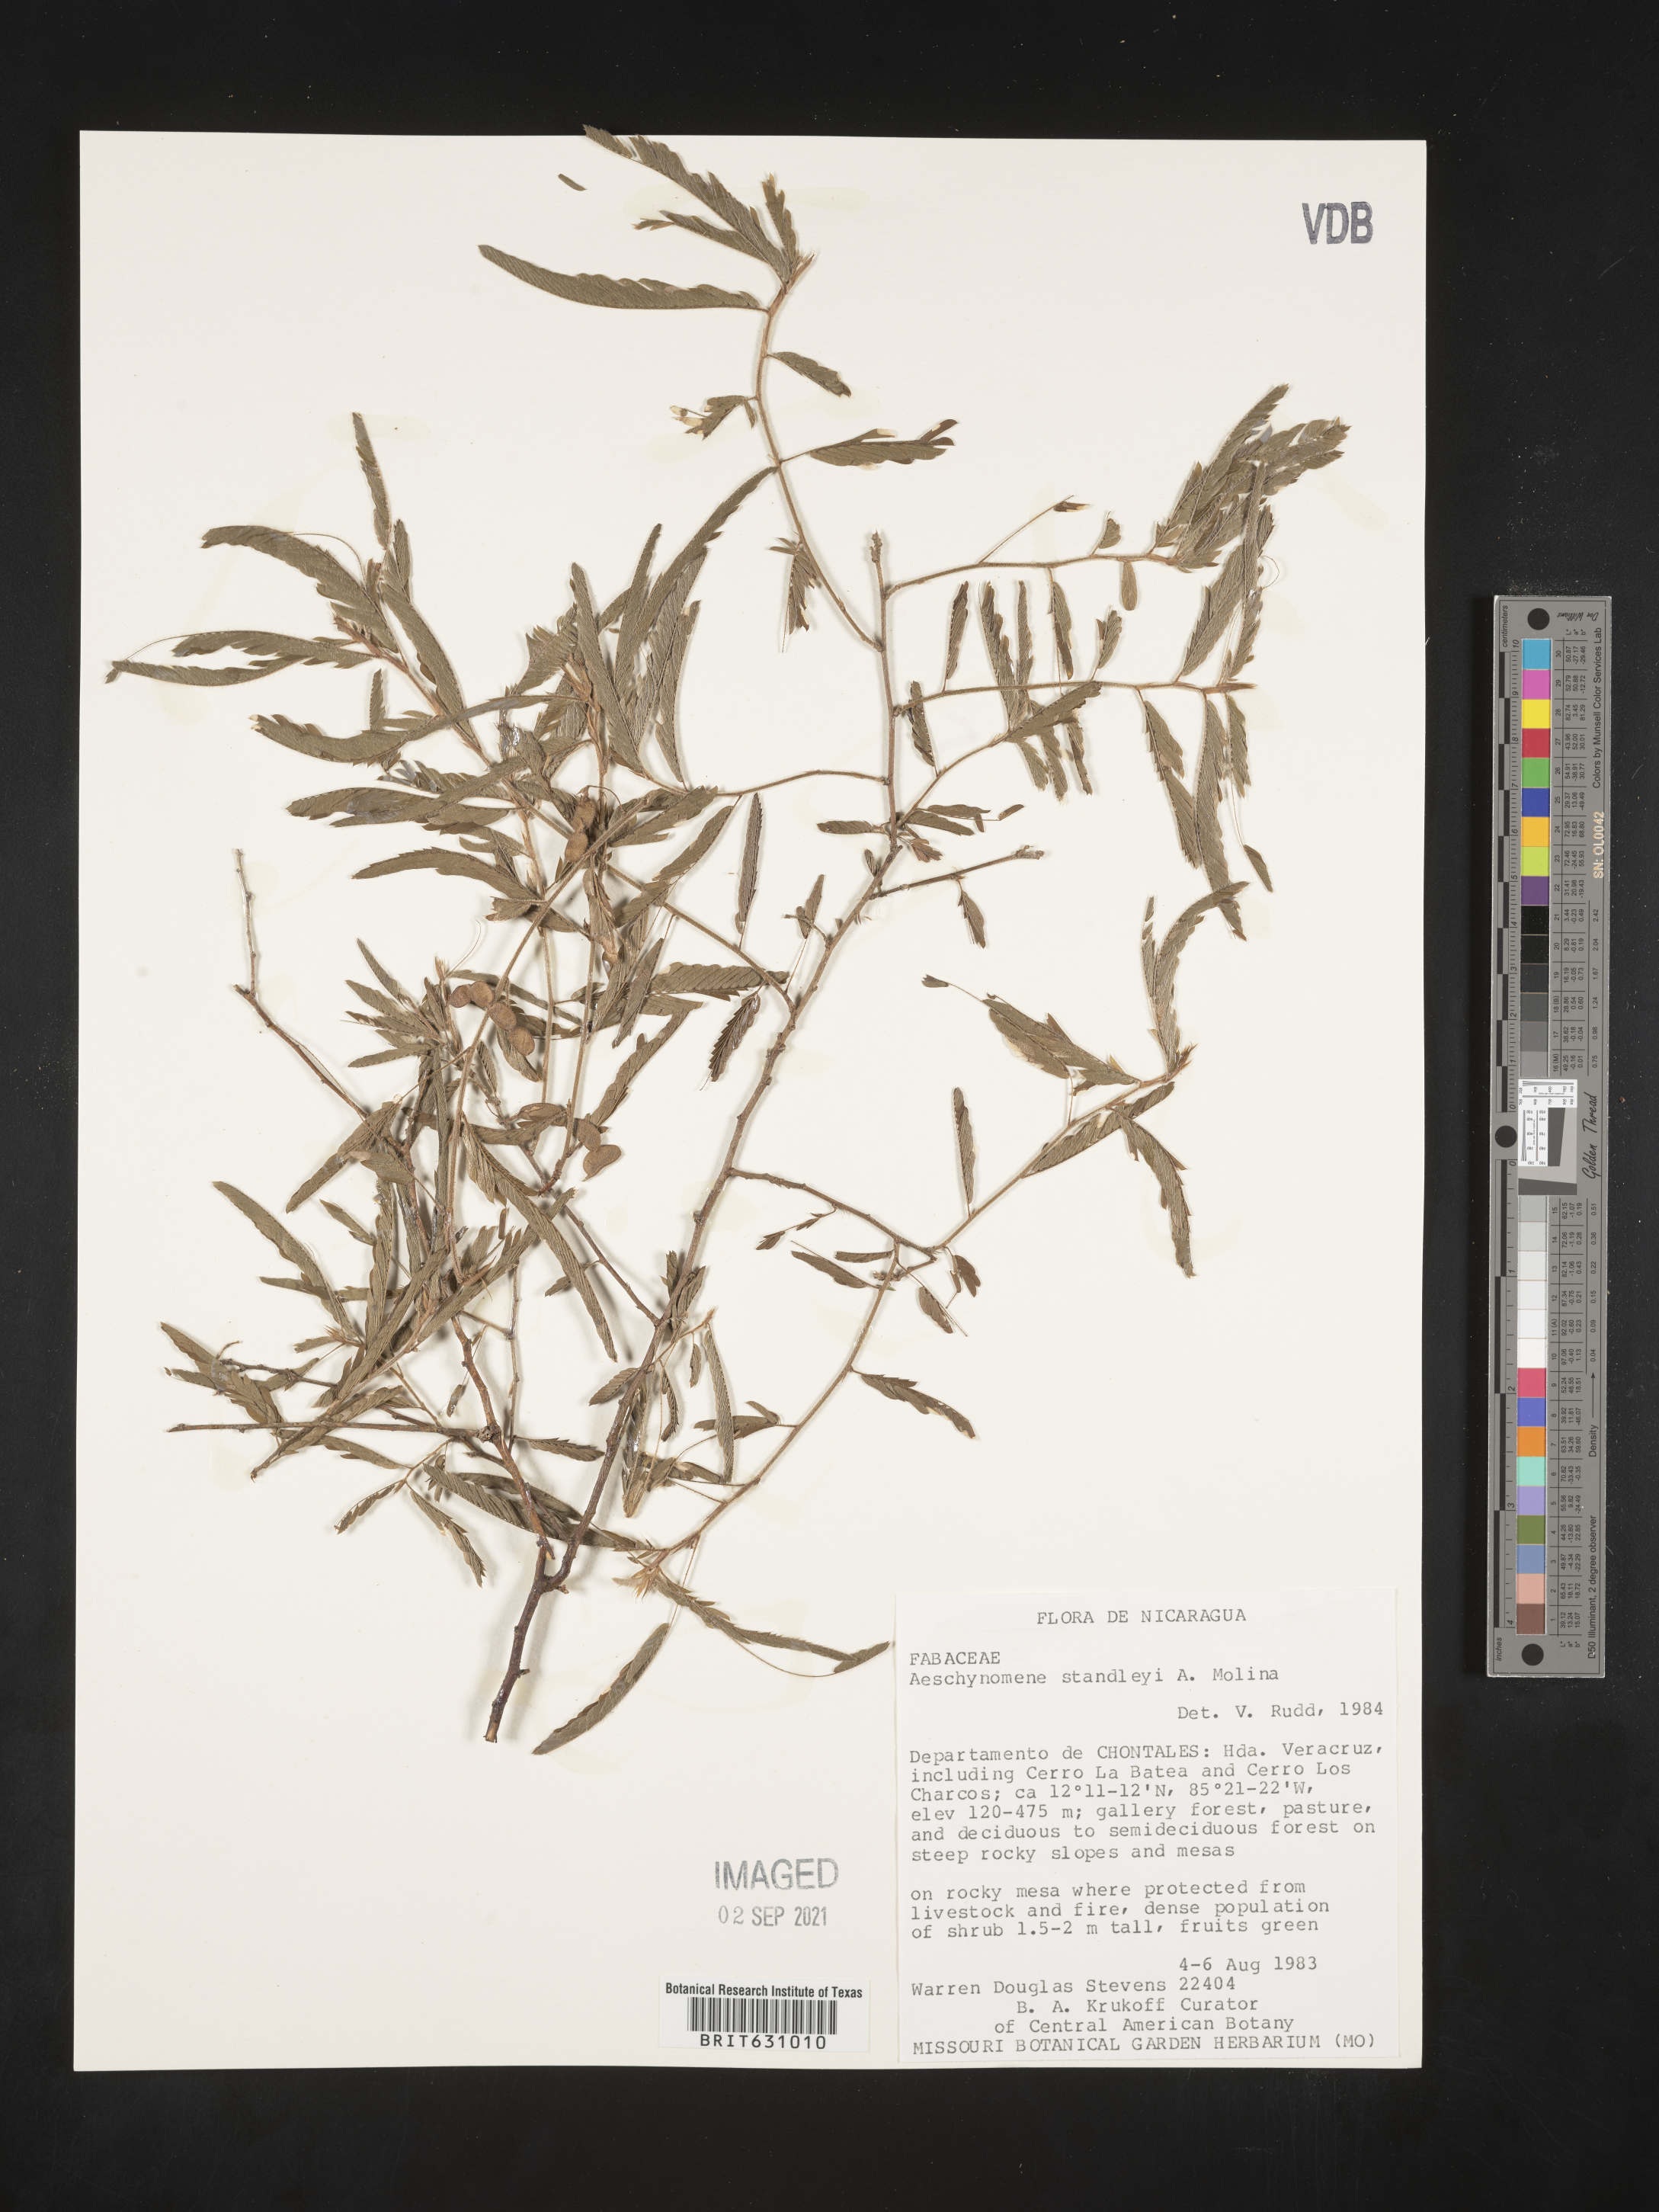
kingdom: Plantae
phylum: Tracheophyta
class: Magnoliopsida
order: Fabales
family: Fabaceae
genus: Aeschynomene
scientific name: Aeschynomene
